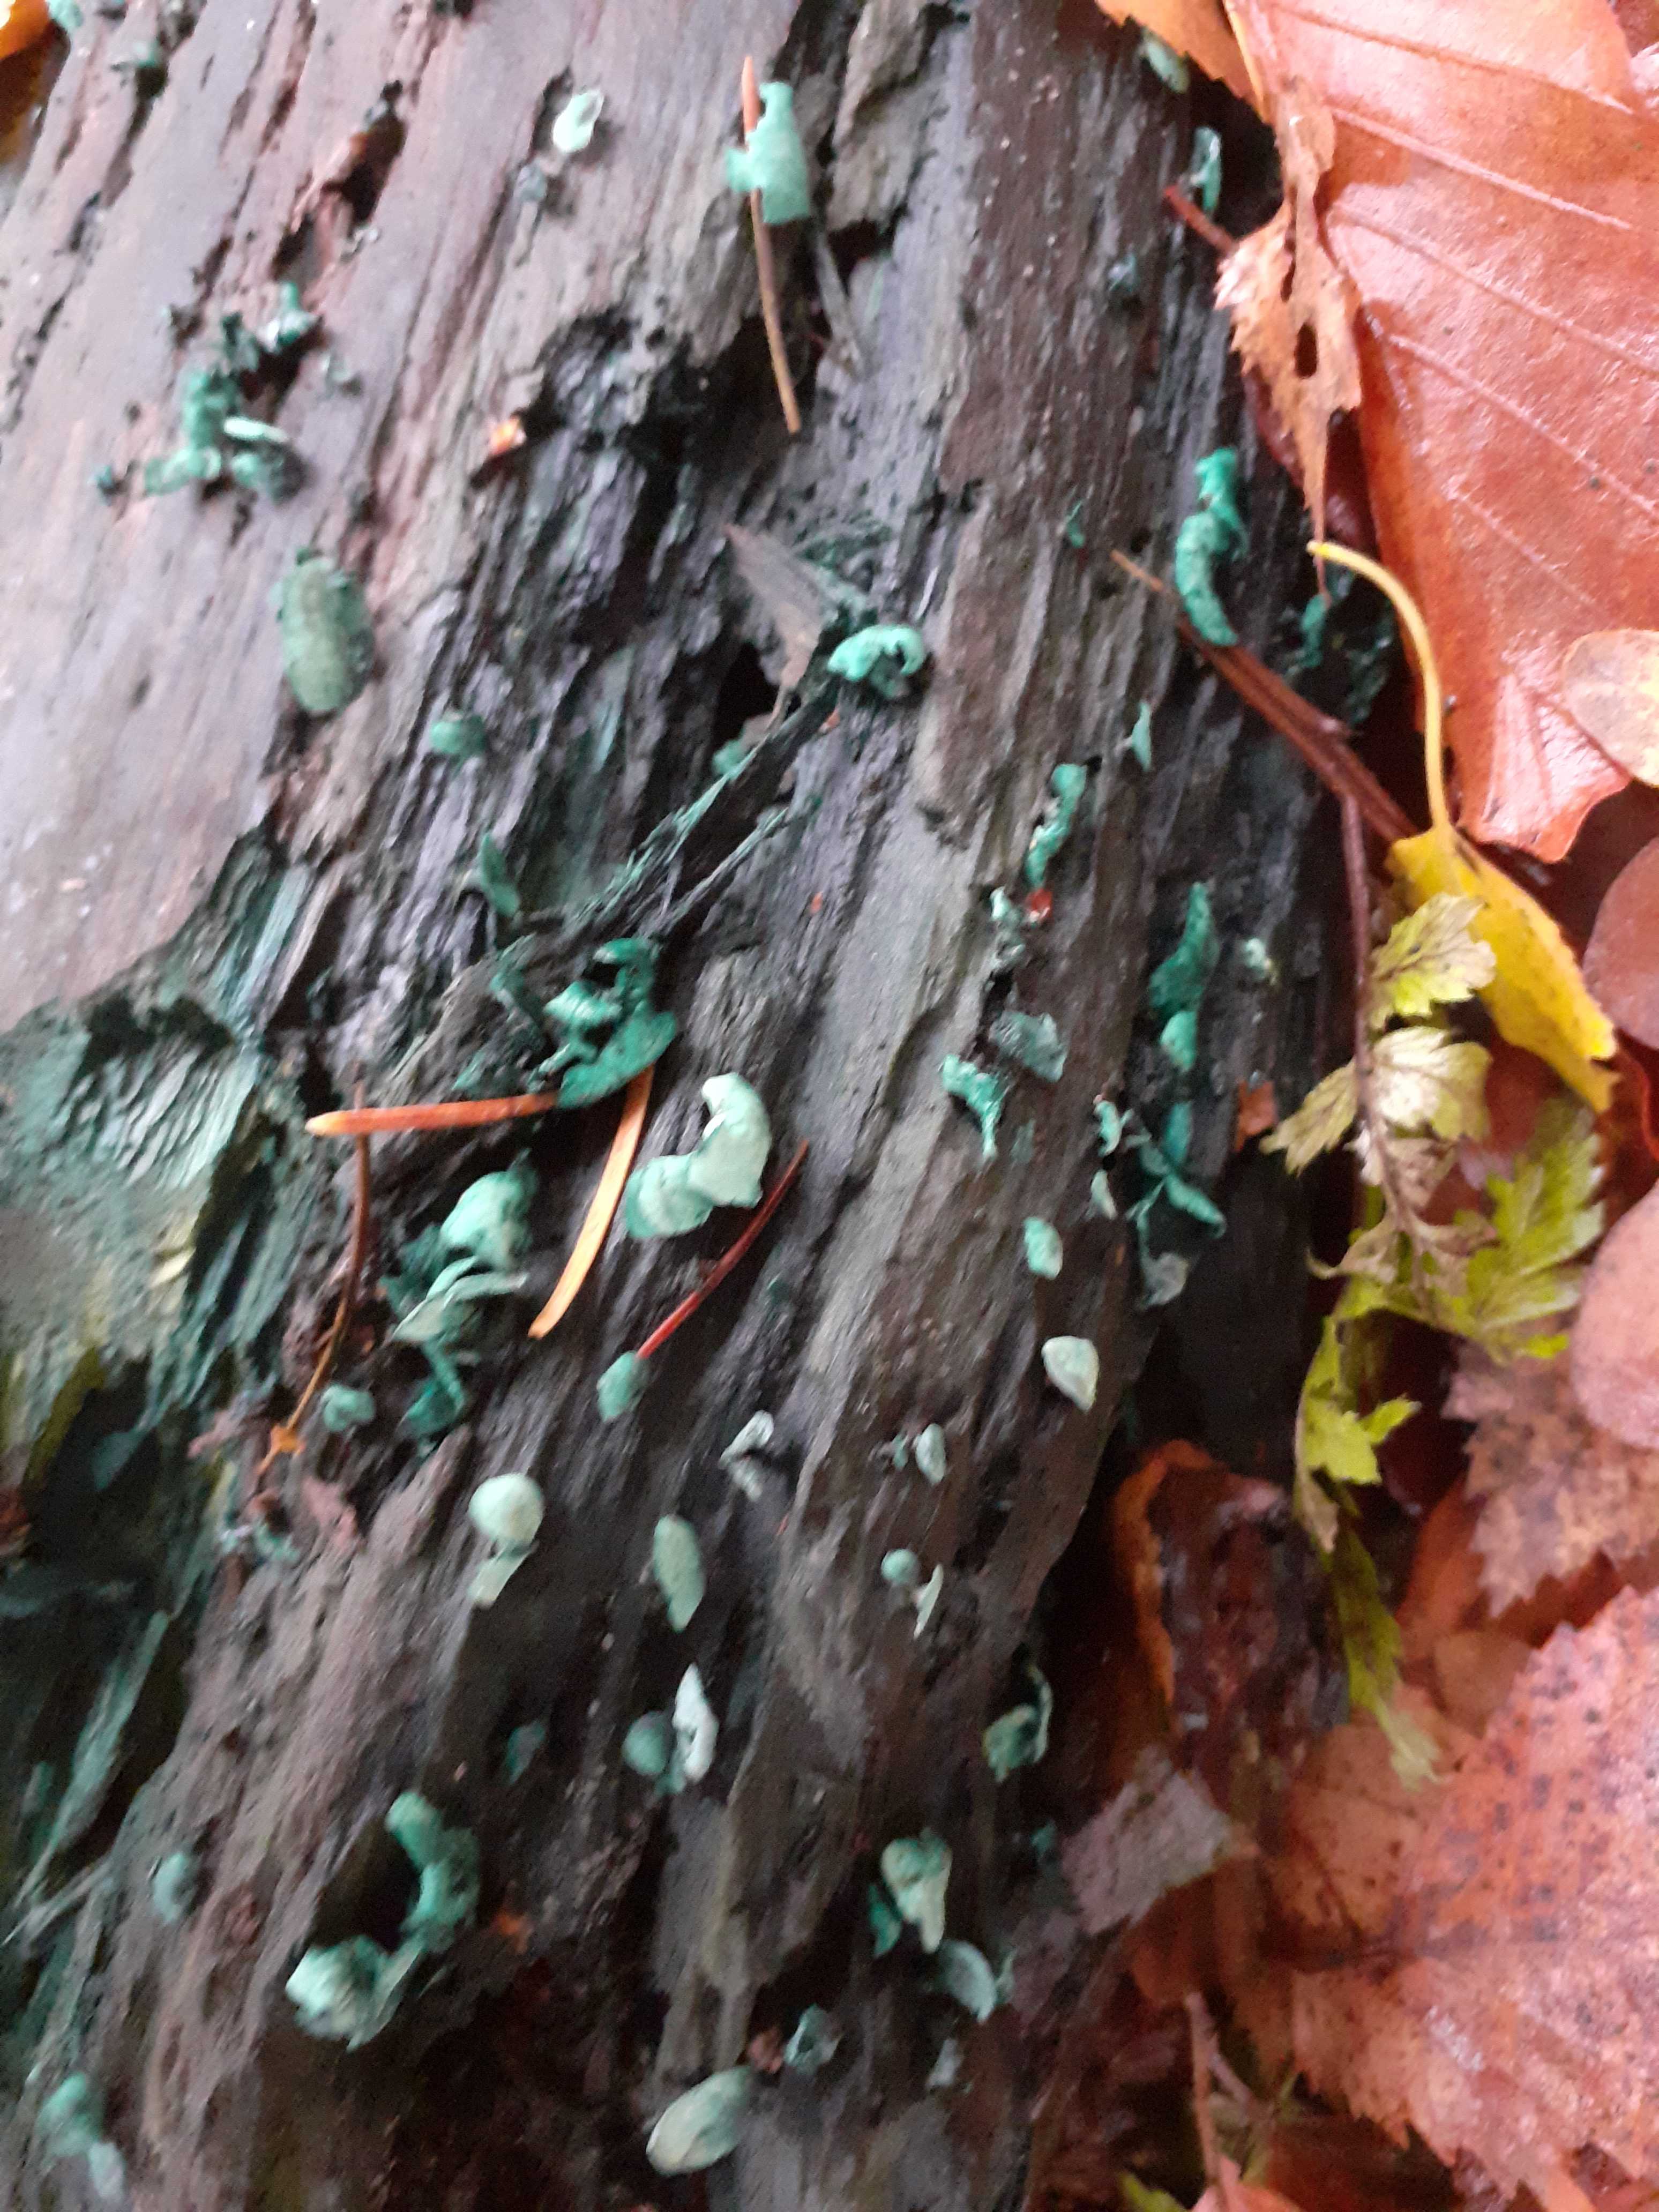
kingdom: Fungi
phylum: Ascomycota
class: Leotiomycetes
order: Helotiales
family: Chlorociboriaceae
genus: Chlorociboria
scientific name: Chlorociboria aeruginascens
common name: almindelig grønskive
